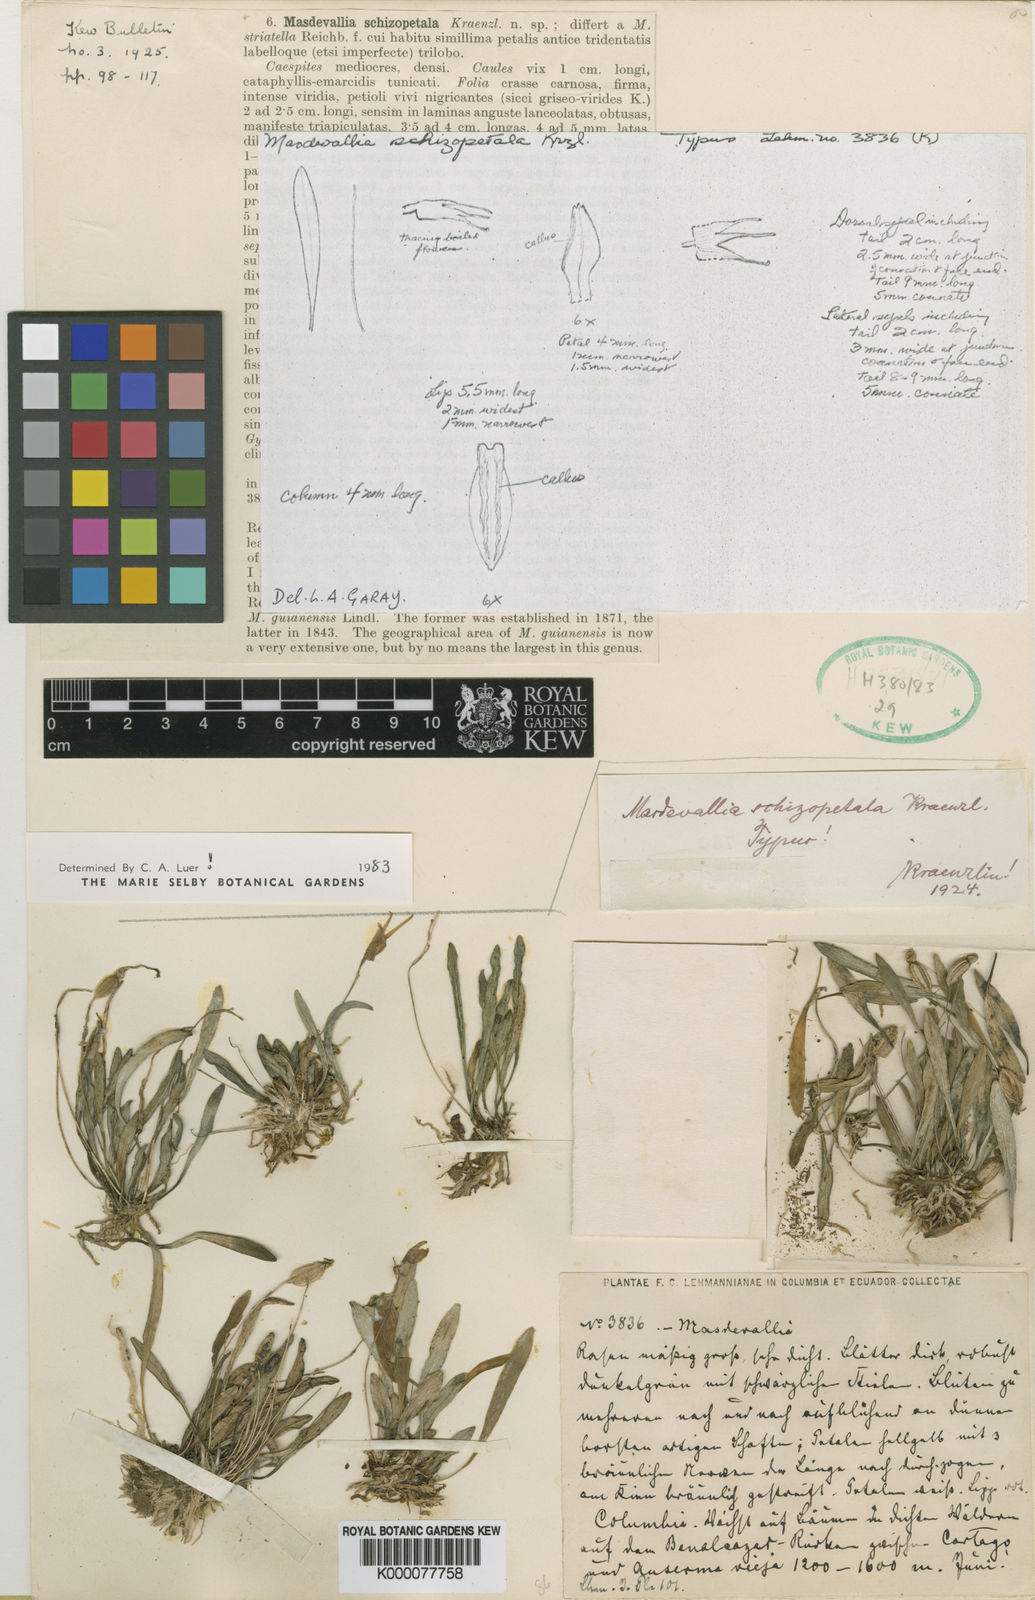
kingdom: Plantae
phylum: Tracheophyta
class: Liliopsida
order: Asparagales
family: Orchidaceae
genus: Masdevallia
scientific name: Masdevallia schizopetala
